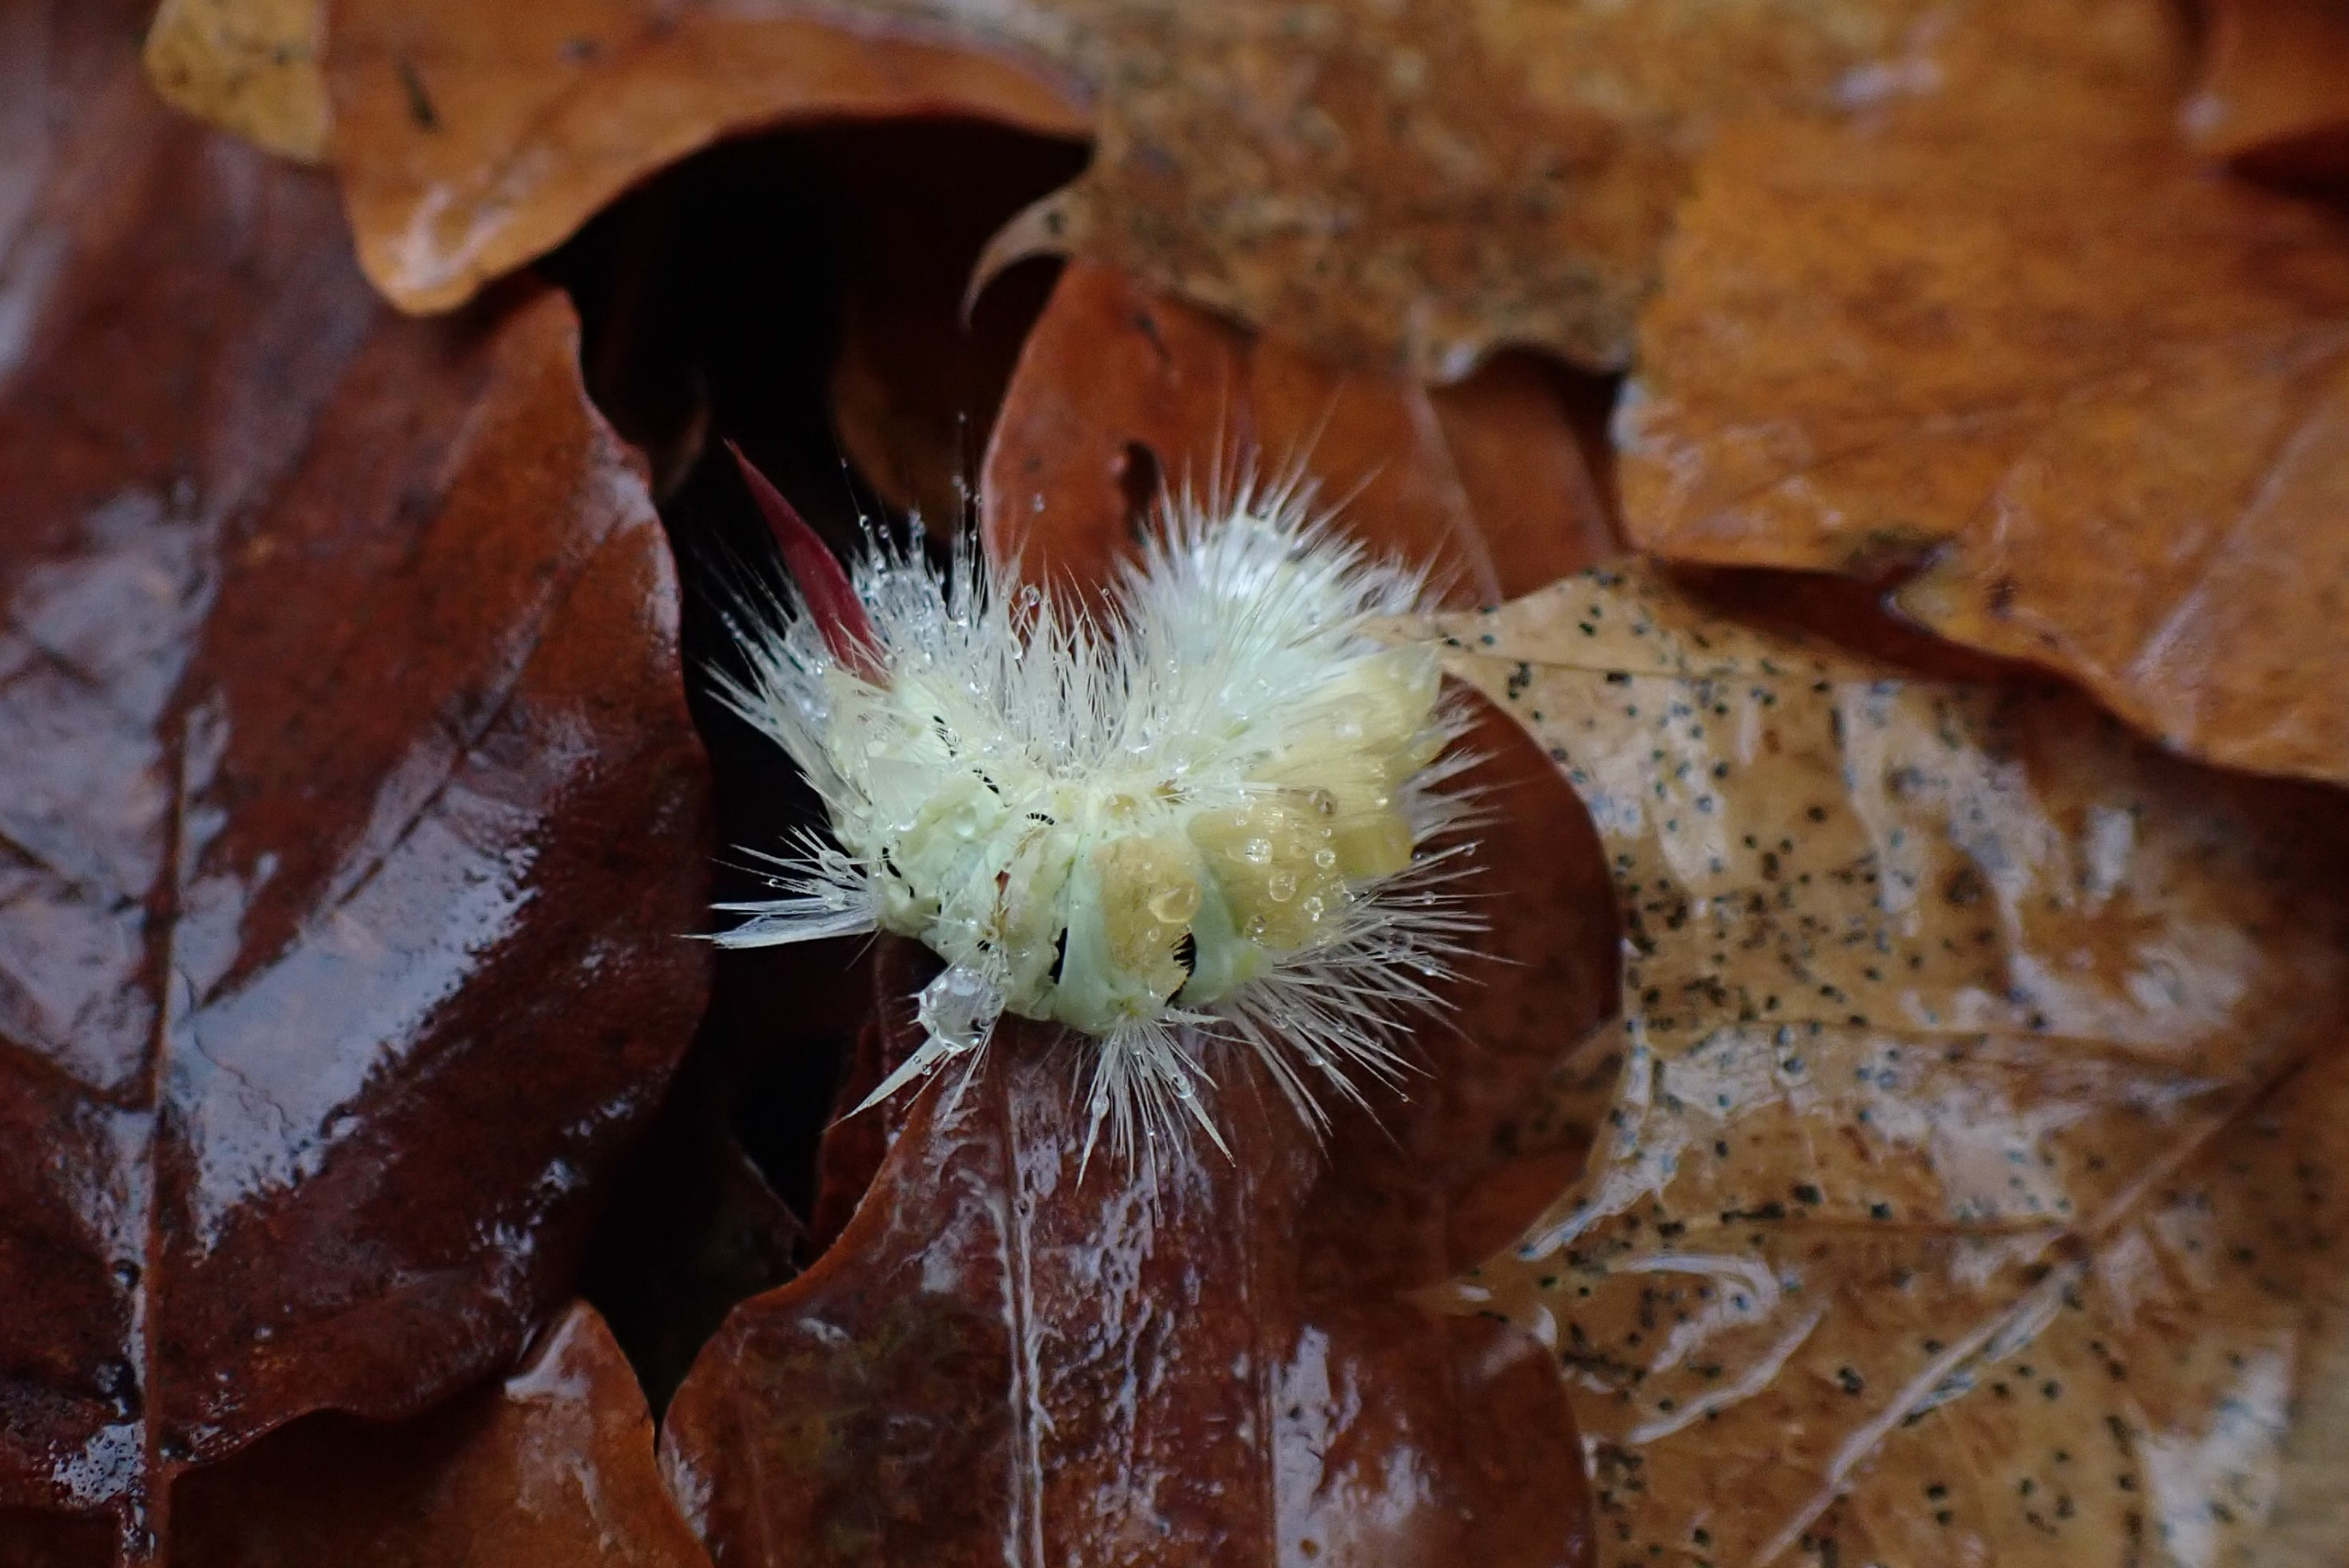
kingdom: Animalia
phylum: Arthropoda
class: Insecta
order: Lepidoptera
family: Erebidae
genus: Calliteara
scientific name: Calliteara pudibunda
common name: Bøgenonne
